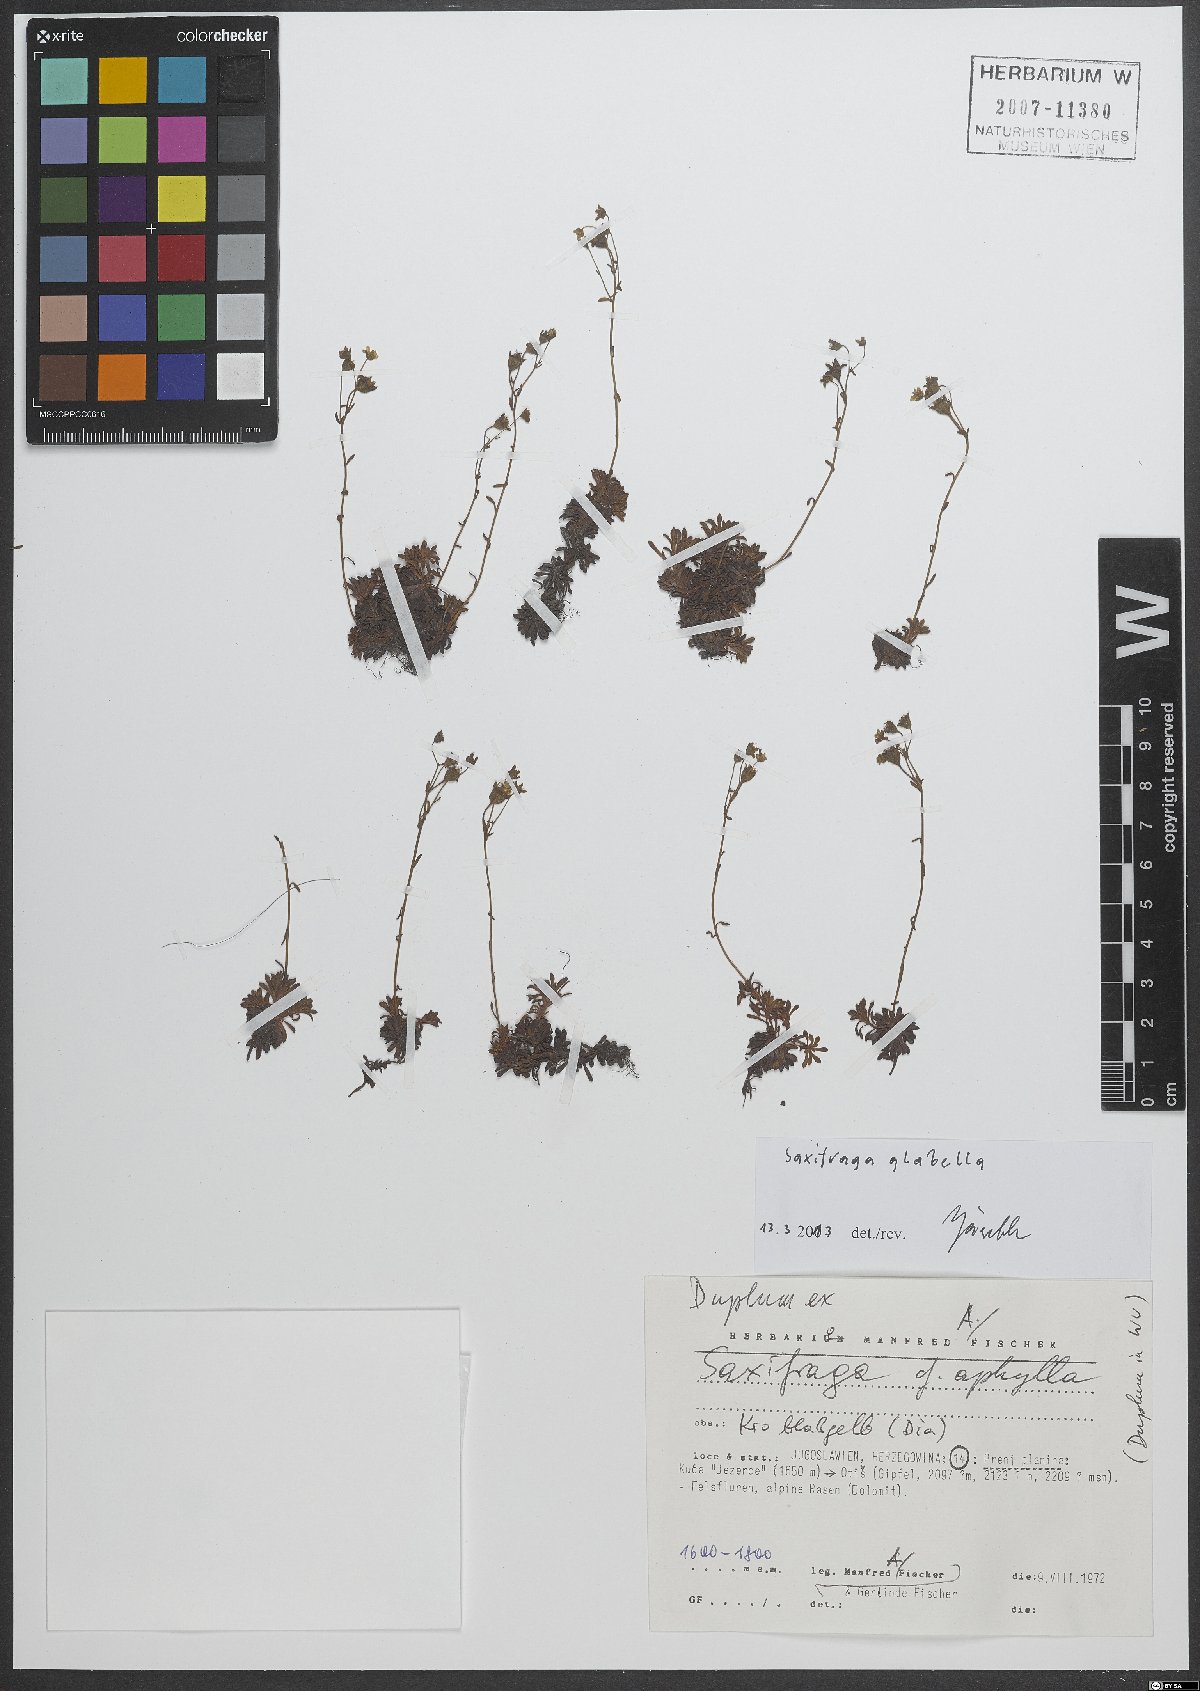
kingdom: Plantae
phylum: Tracheophyta
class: Magnoliopsida
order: Saxifragales
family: Saxifragaceae
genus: Saxifraga
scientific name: Saxifraga glabella
